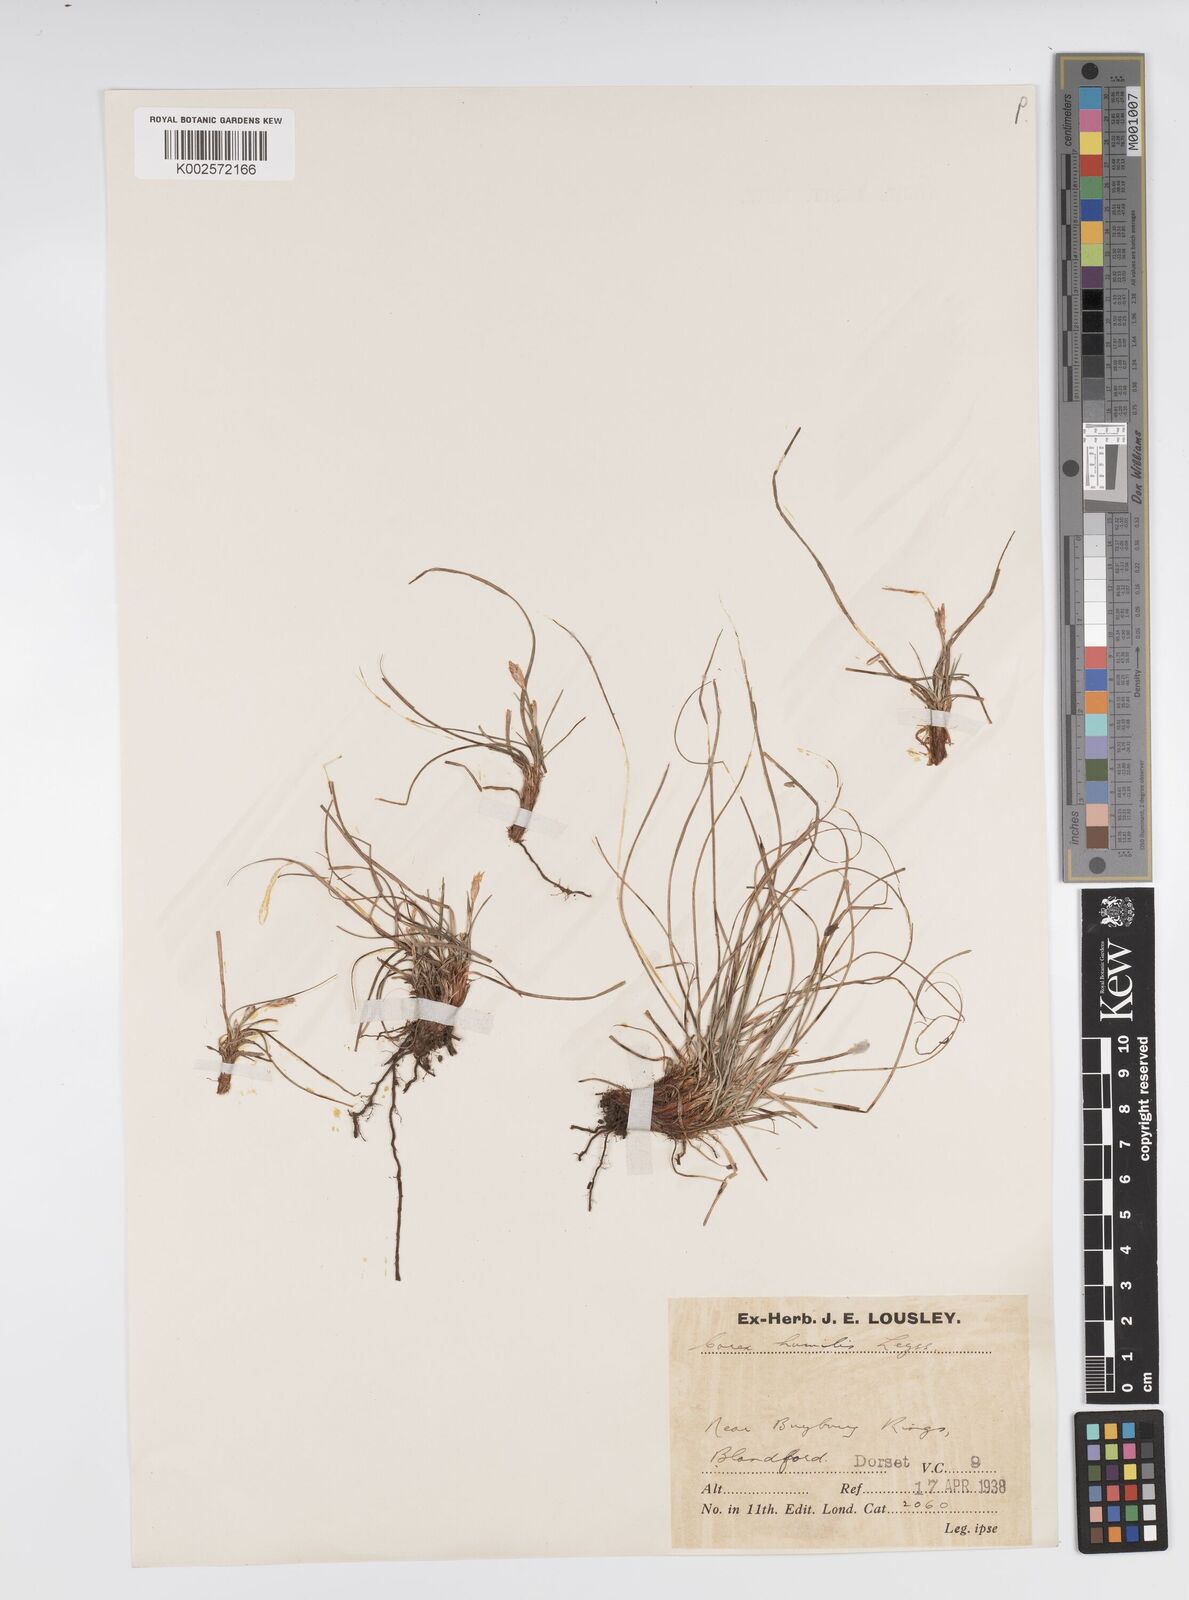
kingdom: Plantae
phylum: Tracheophyta
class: Liliopsida
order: Poales
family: Cyperaceae
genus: Carex
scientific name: Carex cespitosa
